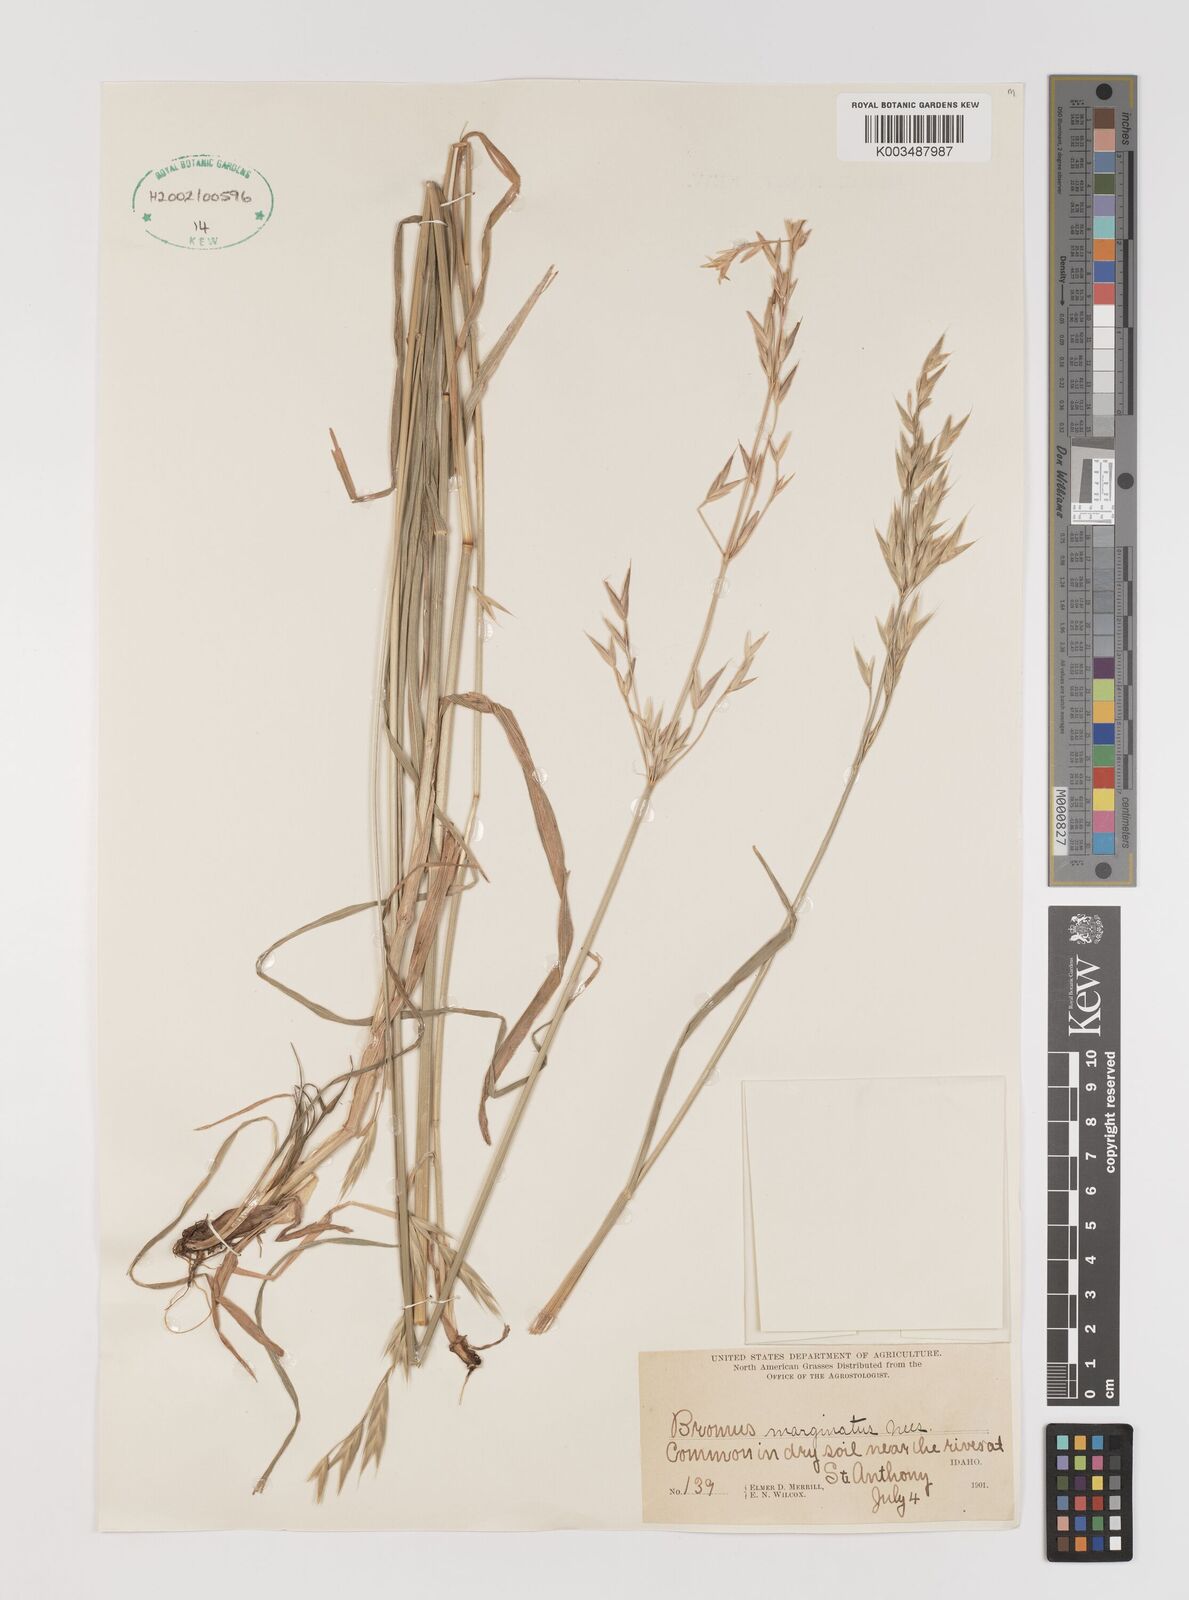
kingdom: Plantae
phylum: Tracheophyta
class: Liliopsida
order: Poales
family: Poaceae
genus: Bromus
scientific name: Bromus marginatus
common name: Western brome
